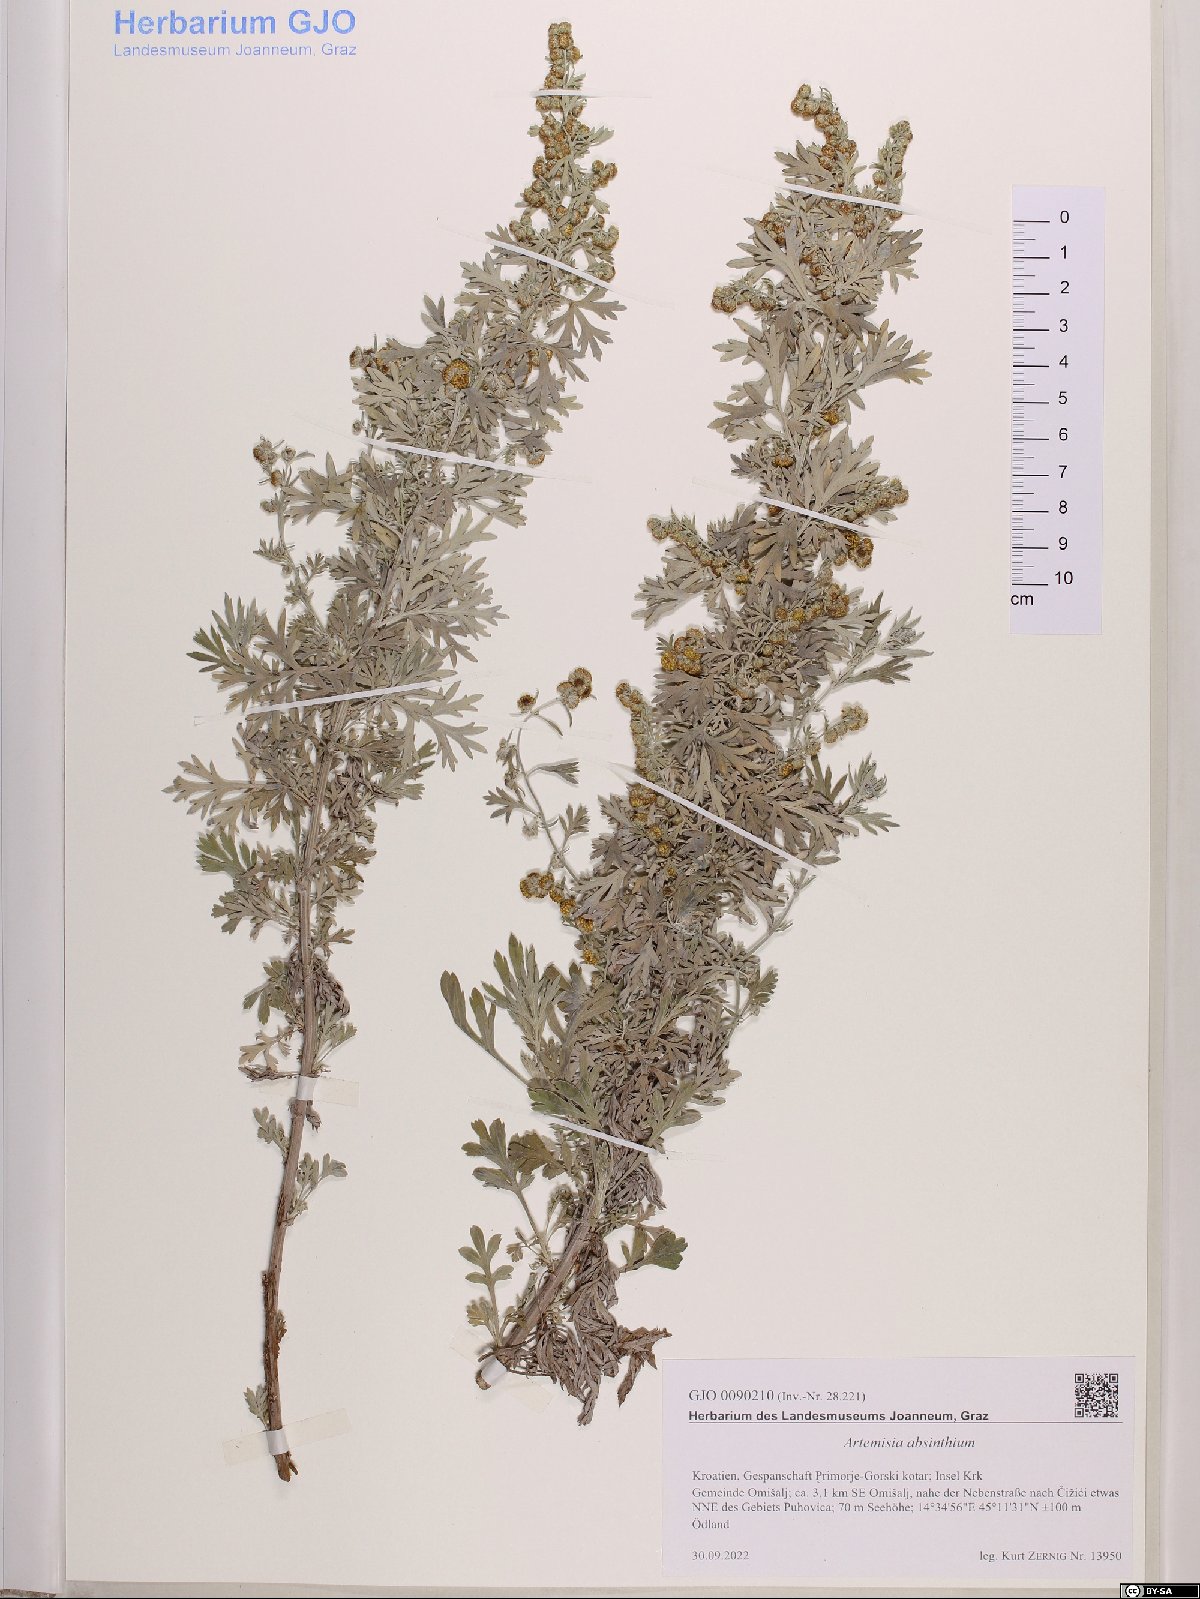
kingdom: Plantae
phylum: Tracheophyta
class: Magnoliopsida
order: Asterales
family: Asteraceae
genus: Artemisia
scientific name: Artemisia absinthium
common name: Wormwood
